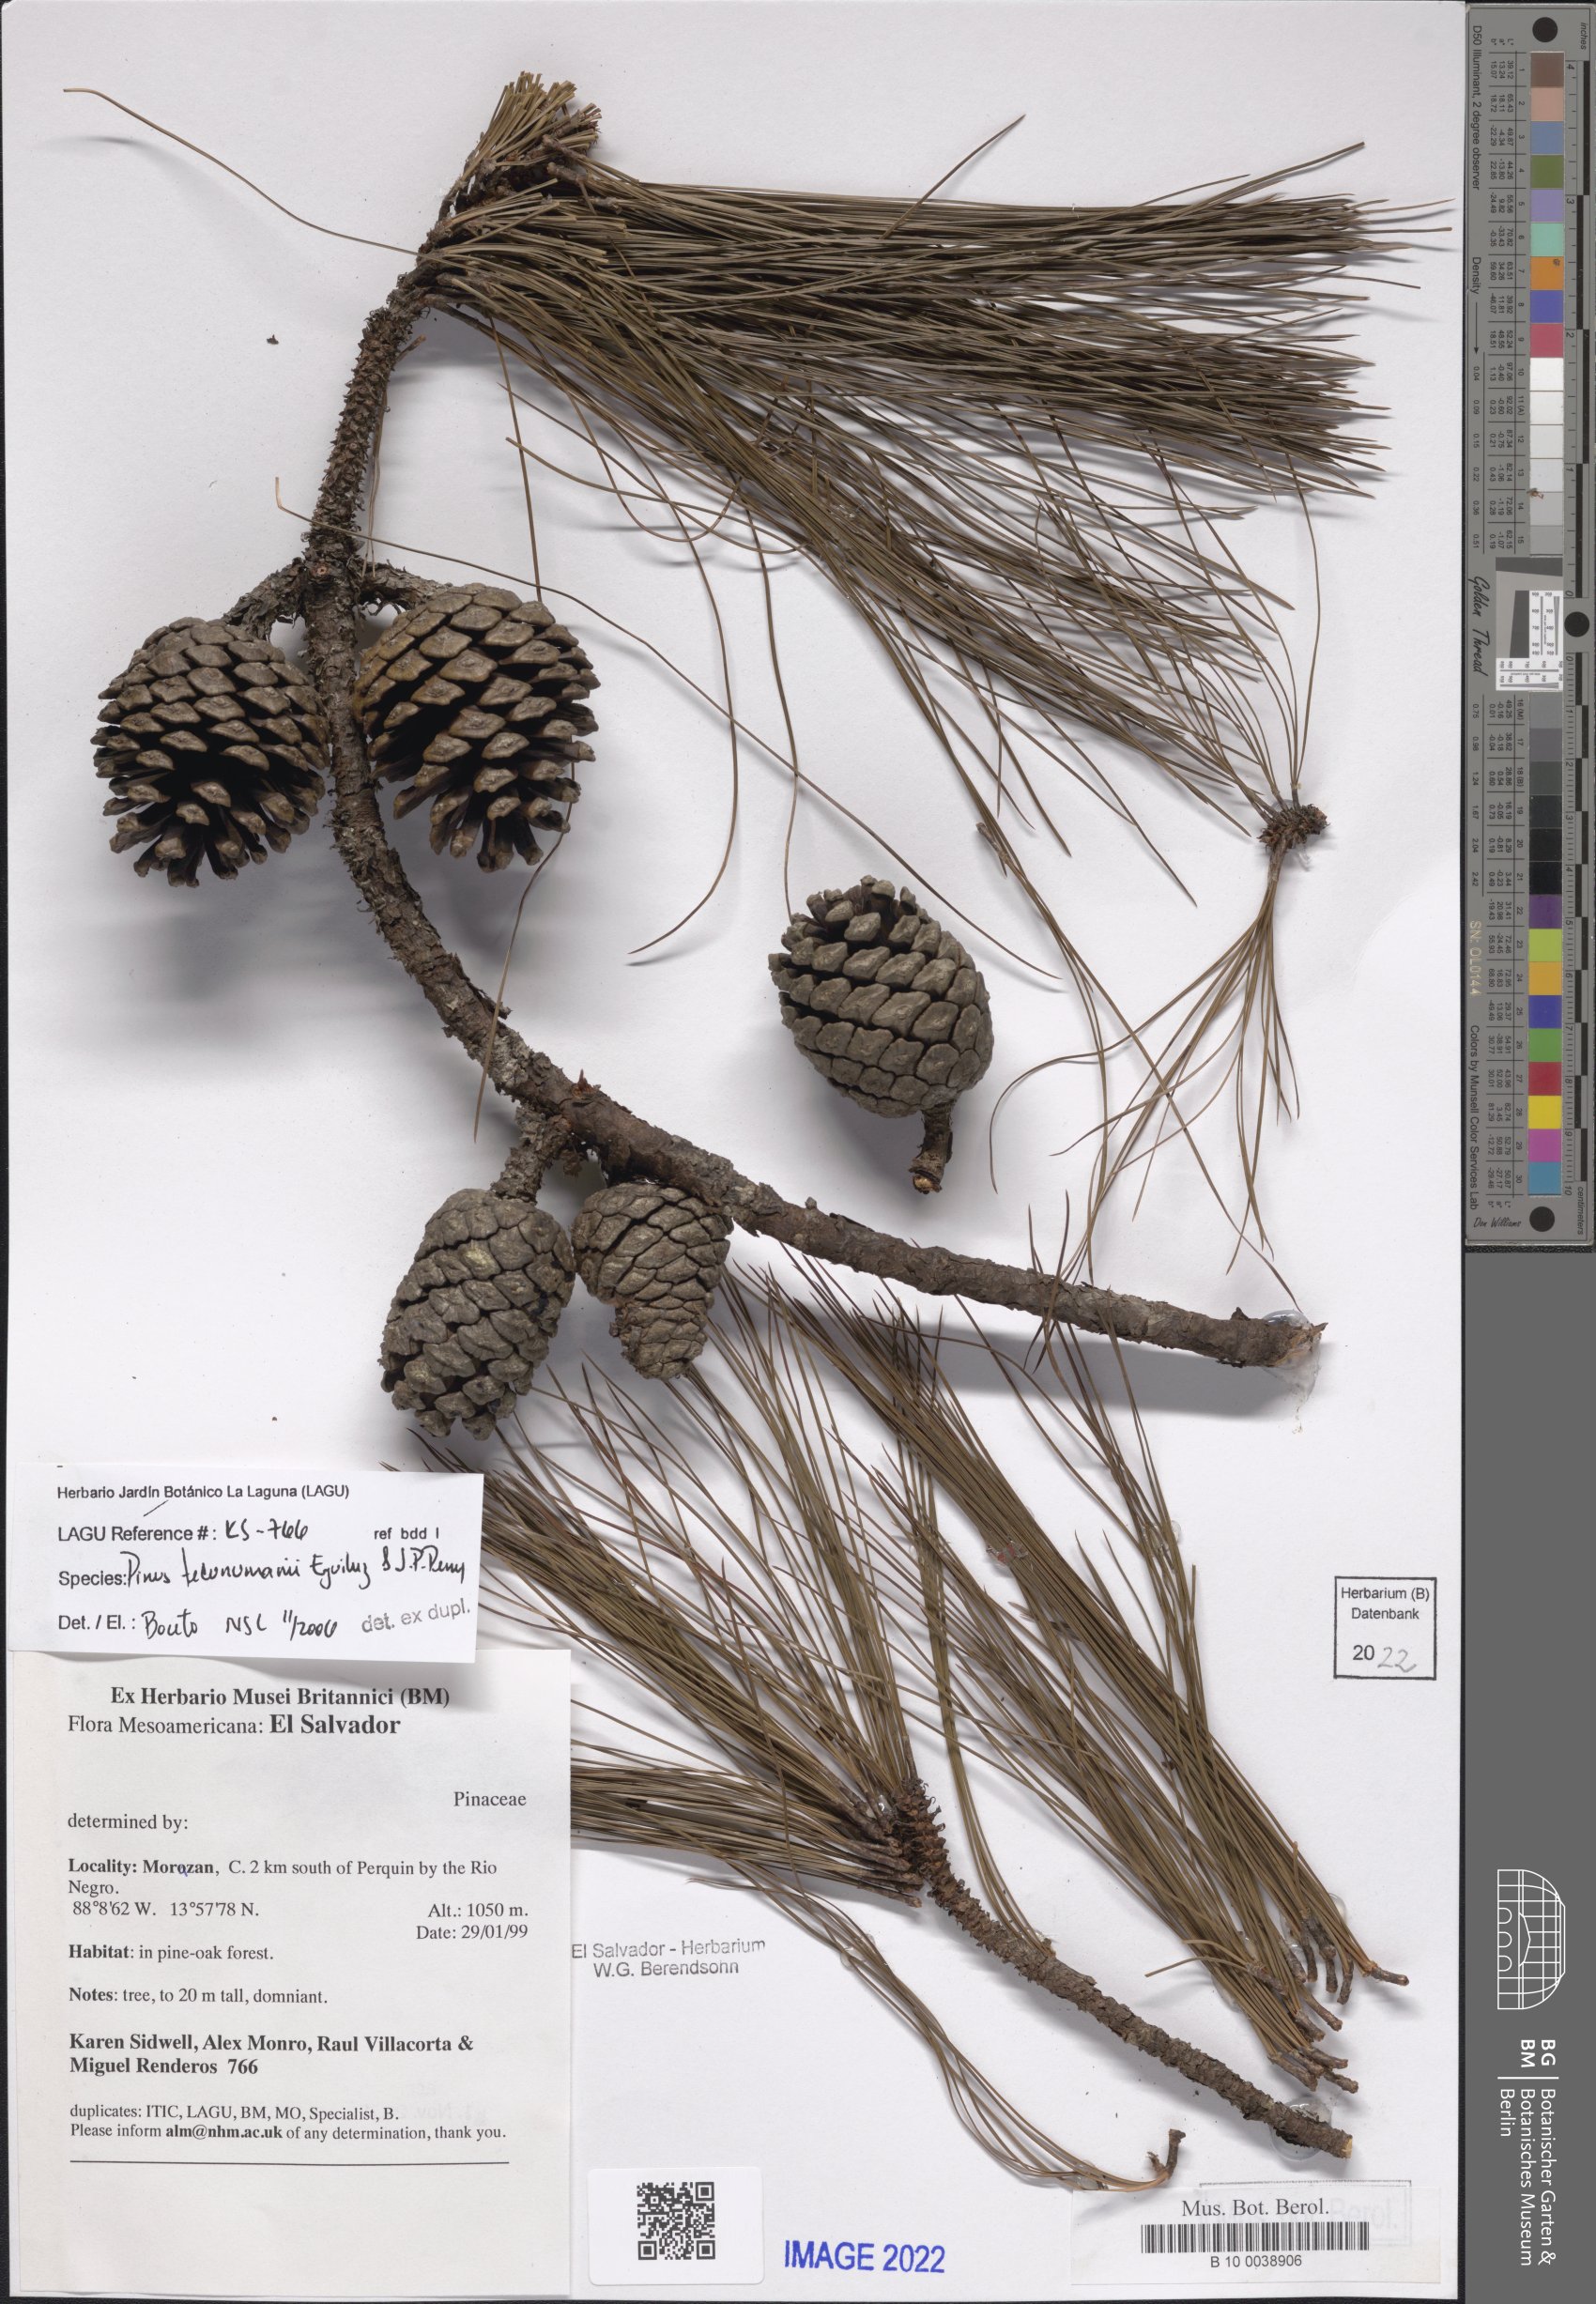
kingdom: Plantae
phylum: Tracheophyta
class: Pinopsida
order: Pinales
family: Pinaceae
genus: Pinus
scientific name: Pinus tecunumanii
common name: Schwerdtfeger's pine
